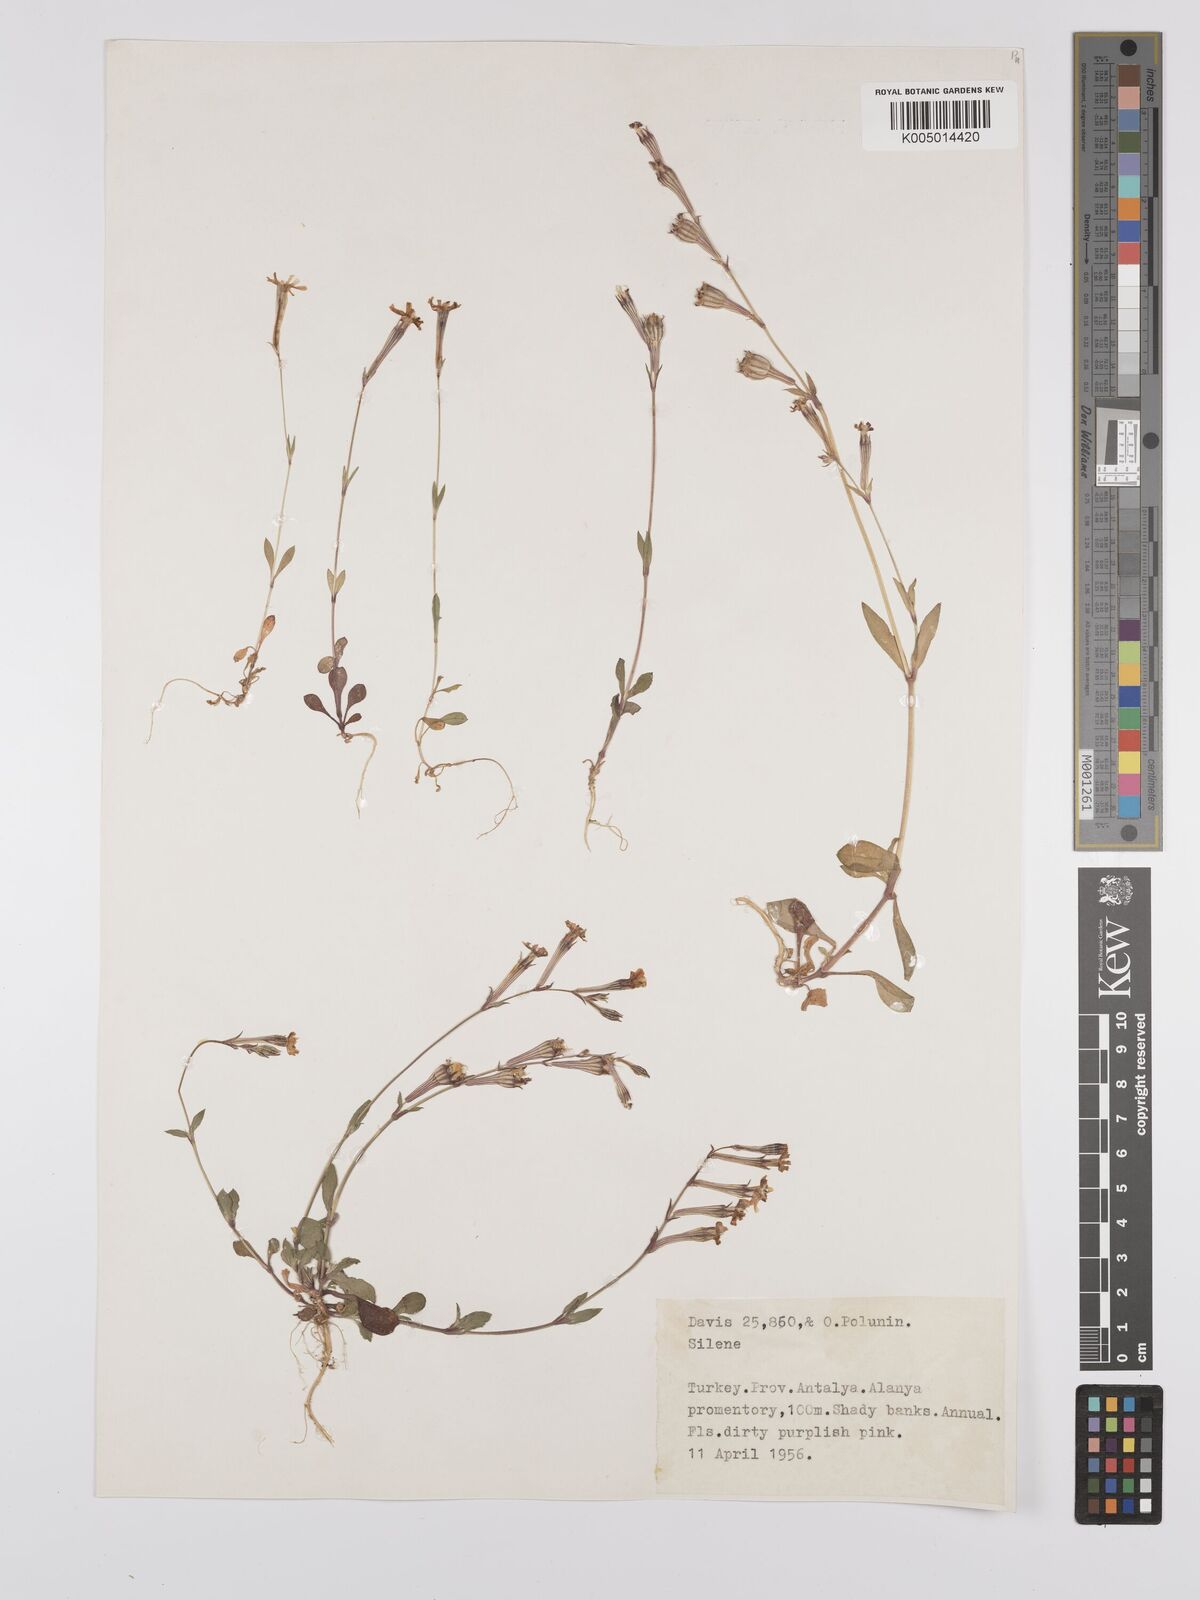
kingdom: Plantae
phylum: Tracheophyta
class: Magnoliopsida
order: Caryophyllales
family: Caryophyllaceae
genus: Silene
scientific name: Silene
